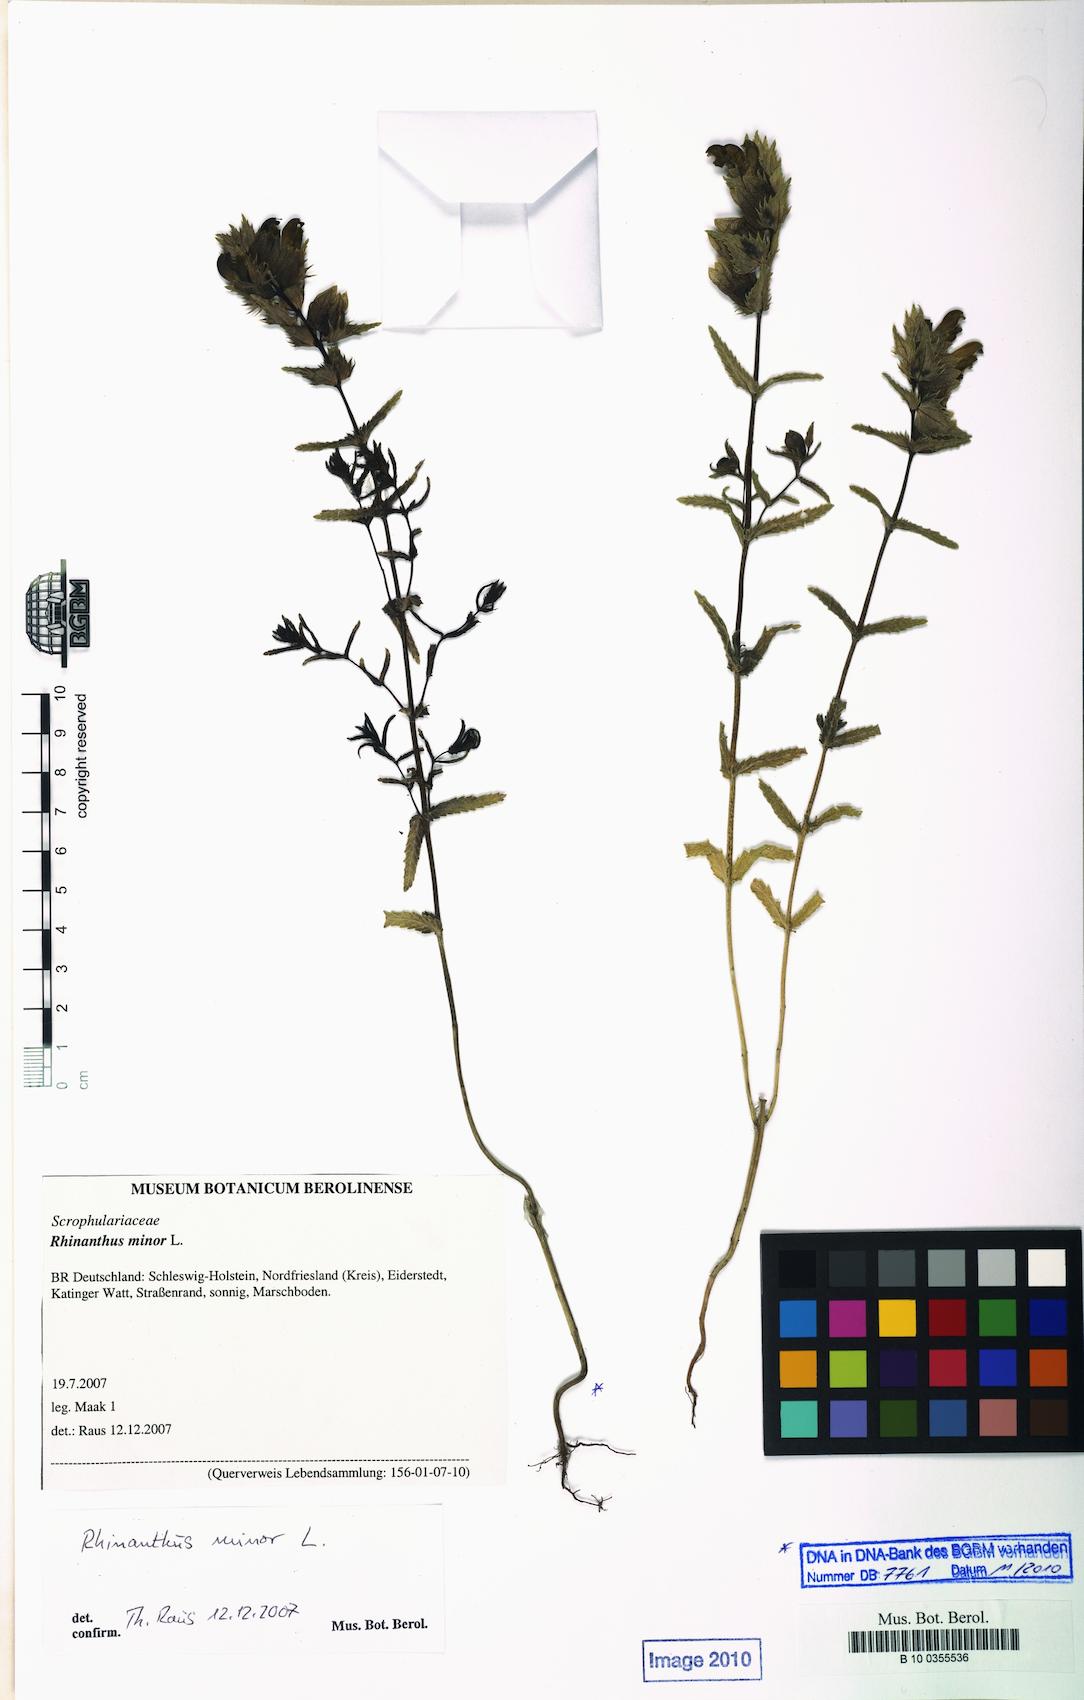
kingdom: Plantae
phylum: Tracheophyta
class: Magnoliopsida
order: Lamiales
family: Orobanchaceae
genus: Rhinanthus
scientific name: Rhinanthus minor
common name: Yellow-rattle
